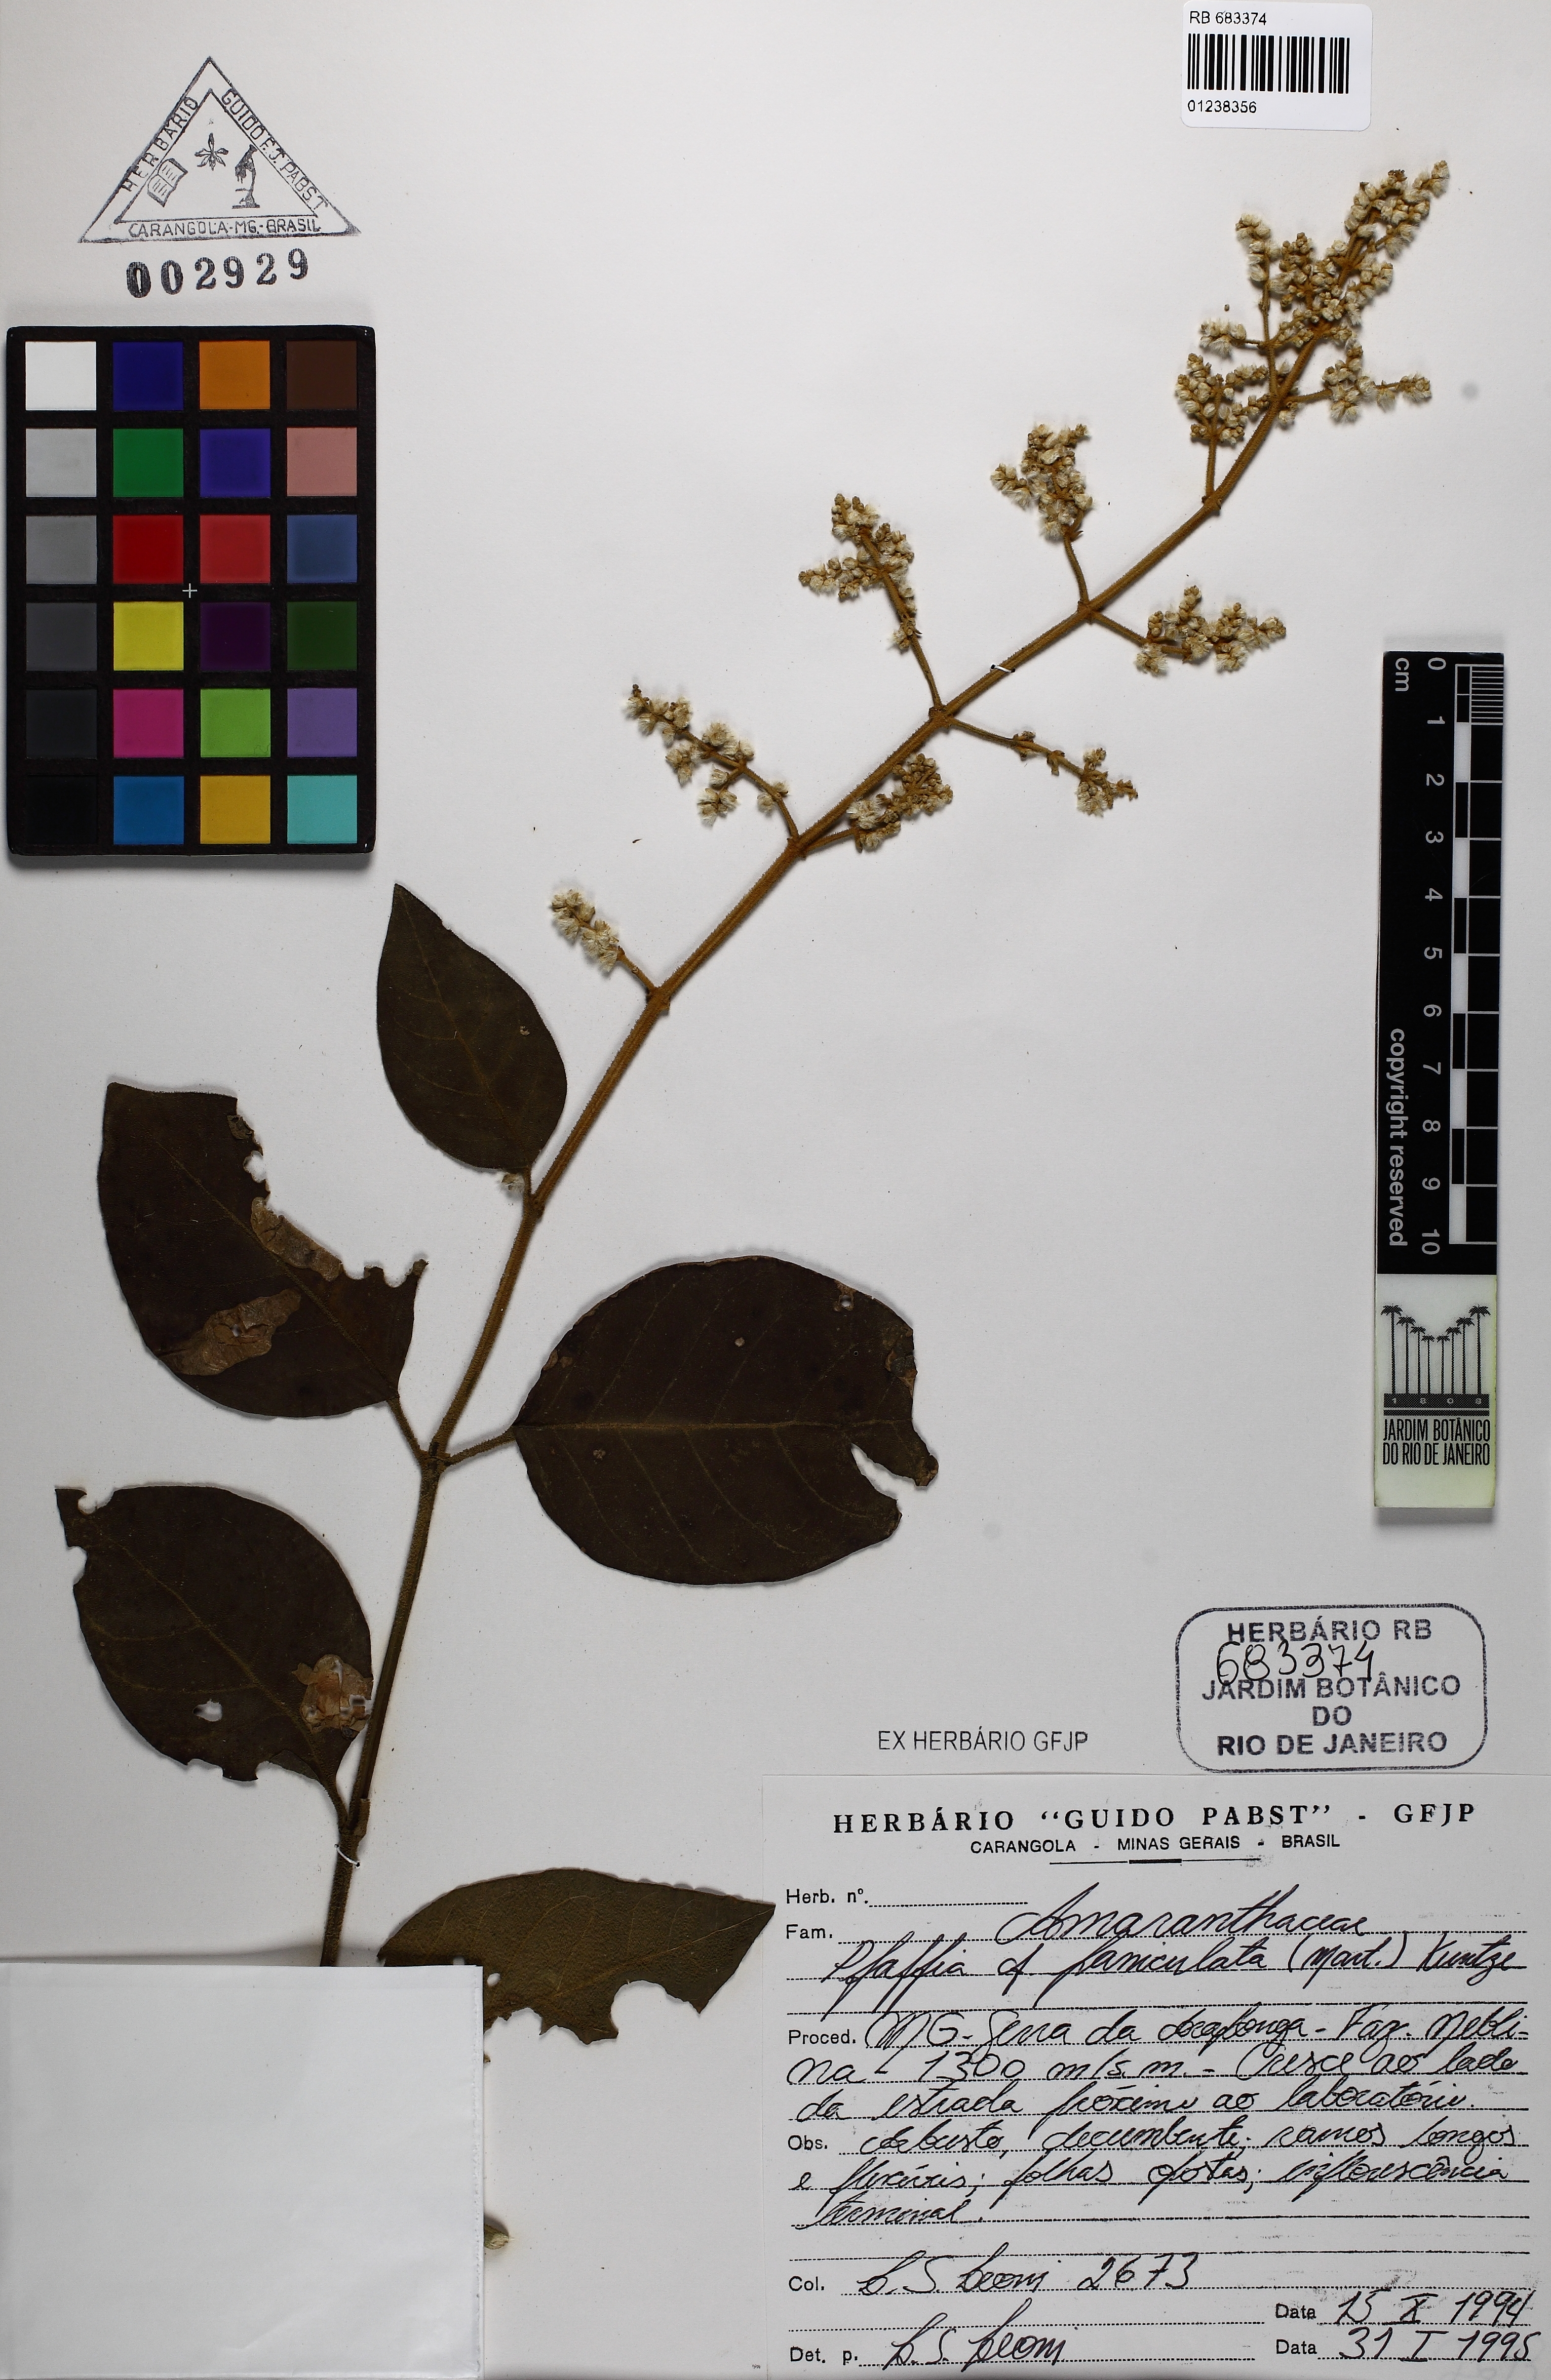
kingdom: Plantae
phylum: Tracheophyta
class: Magnoliopsida
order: Caryophyllales
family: Amaranthaceae
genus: Hebanthe
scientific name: Hebanthe erianthos
